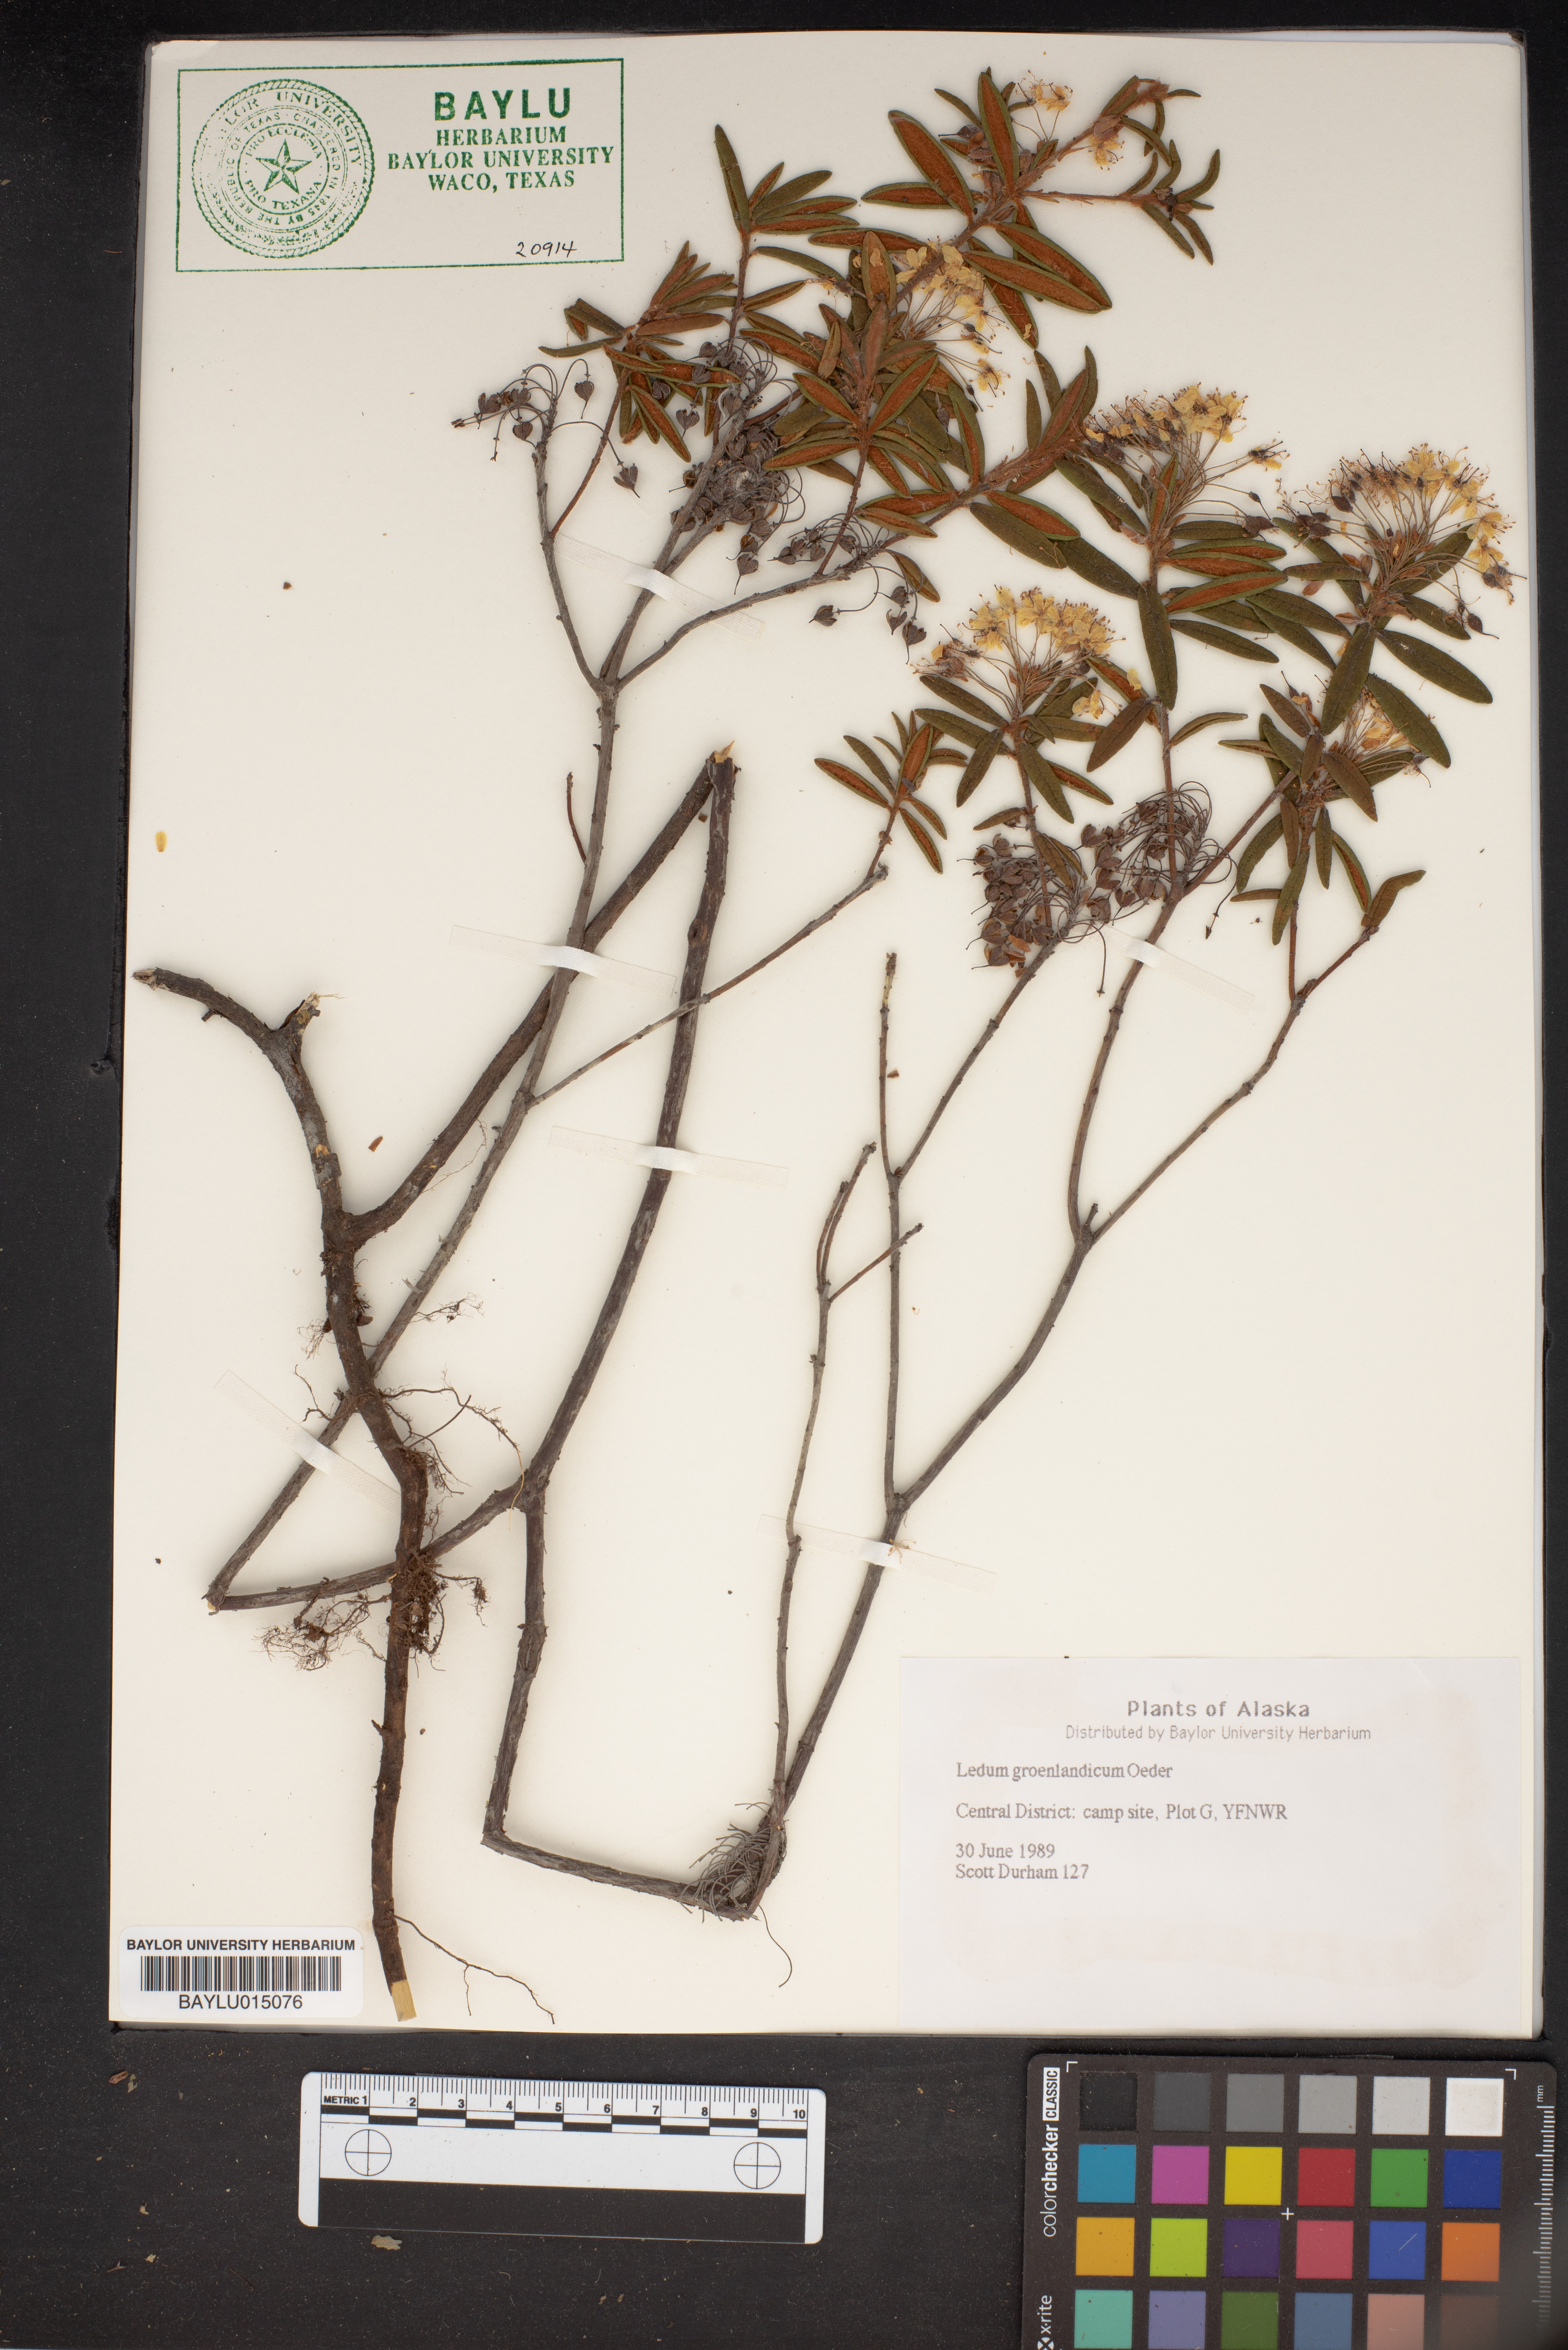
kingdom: Plantae
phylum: Tracheophyta
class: Magnoliopsida
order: Ericales
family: Ericaceae
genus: Rhododendron
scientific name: Rhododendron groenlandicum
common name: Bog labrador tea
